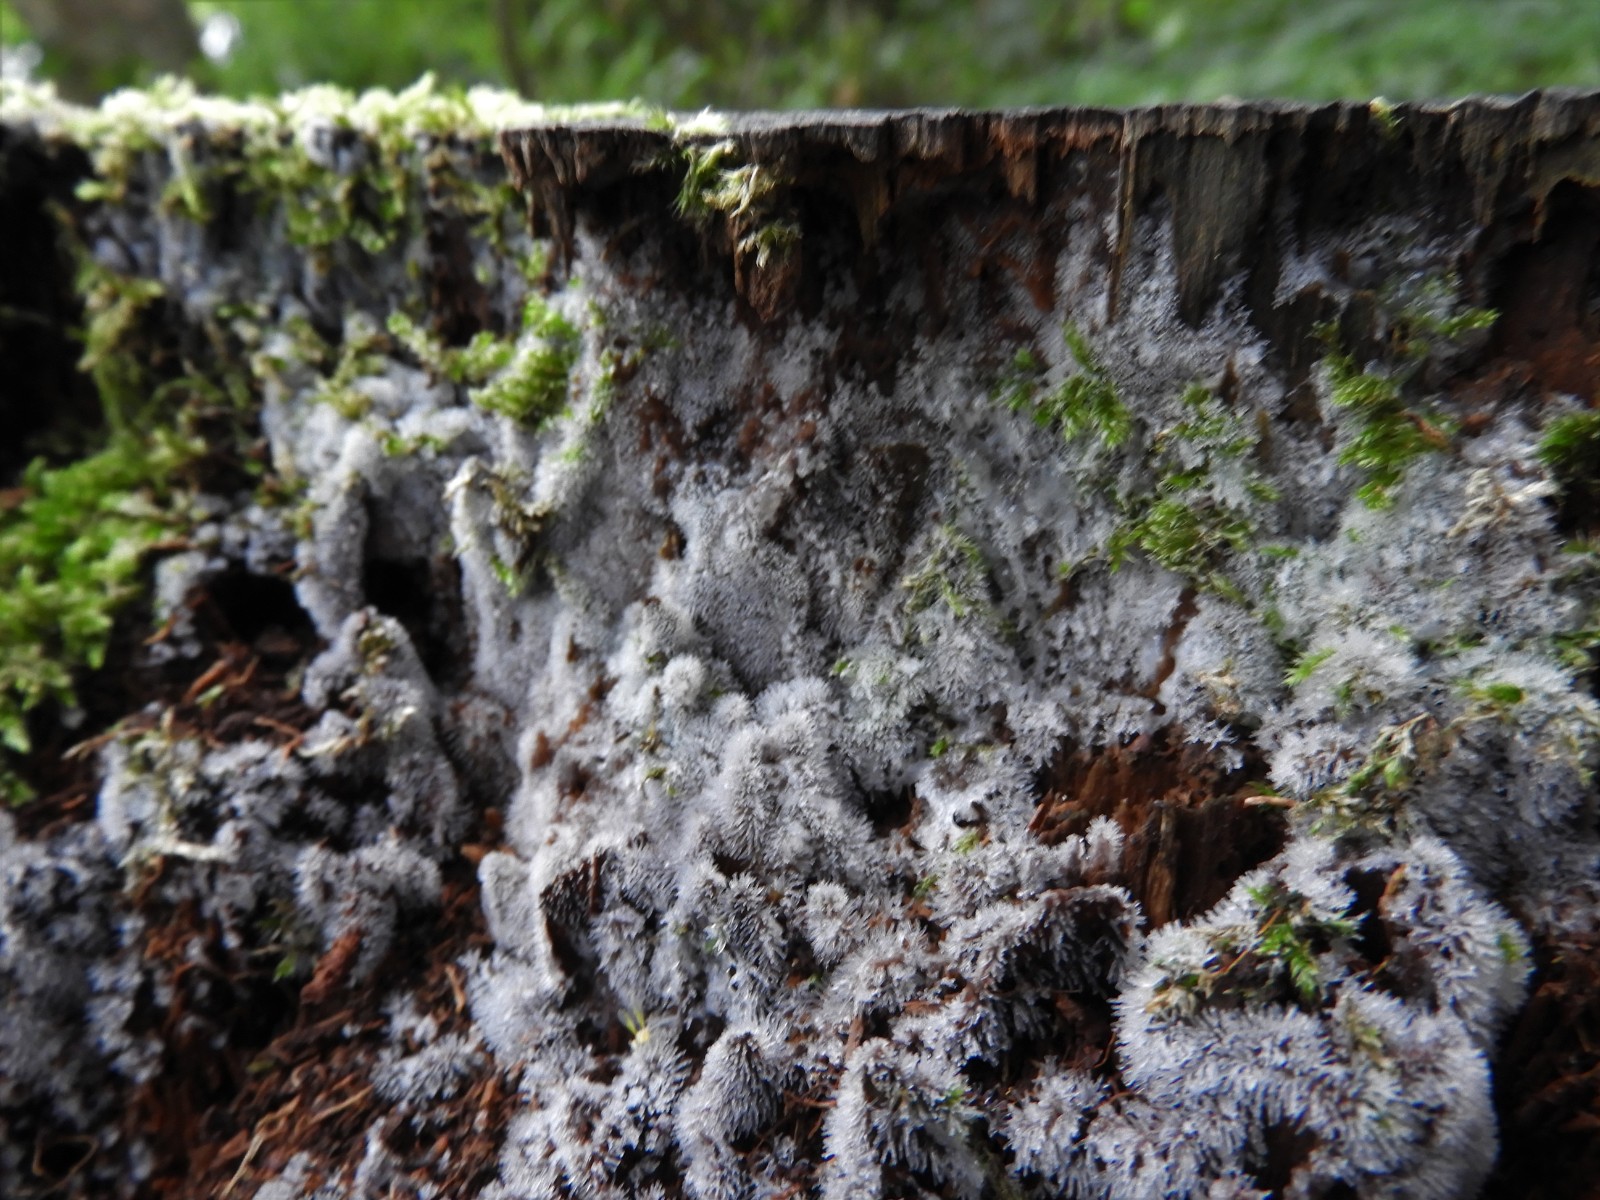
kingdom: Protozoa
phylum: Mycetozoa
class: Protosteliomycetes
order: Ceratiomyxales
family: Ceratiomyxaceae
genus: Ceratiomyxa
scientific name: Ceratiomyxa fruticulosa
